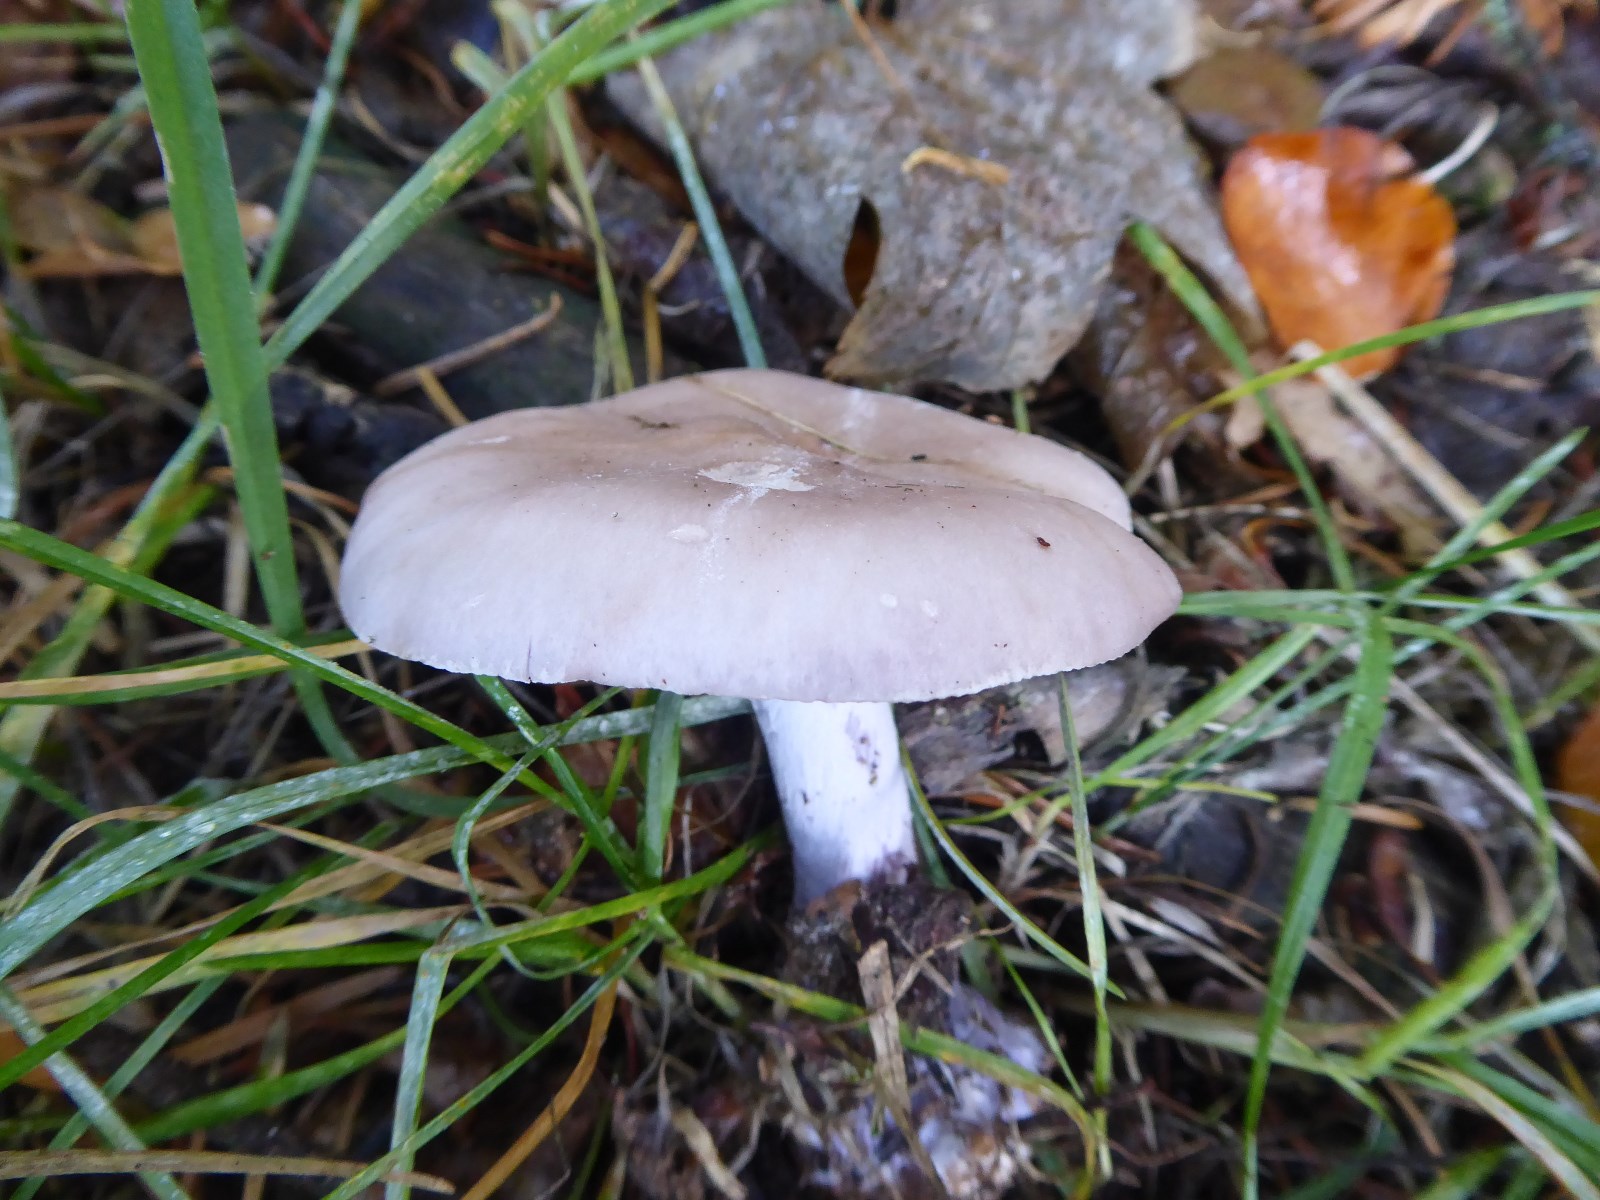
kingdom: Fungi
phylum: Basidiomycota
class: Agaricomycetes
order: Agaricales
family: Tricholomataceae
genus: Lepista
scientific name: Lepista nuda
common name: violet hekseringshat
